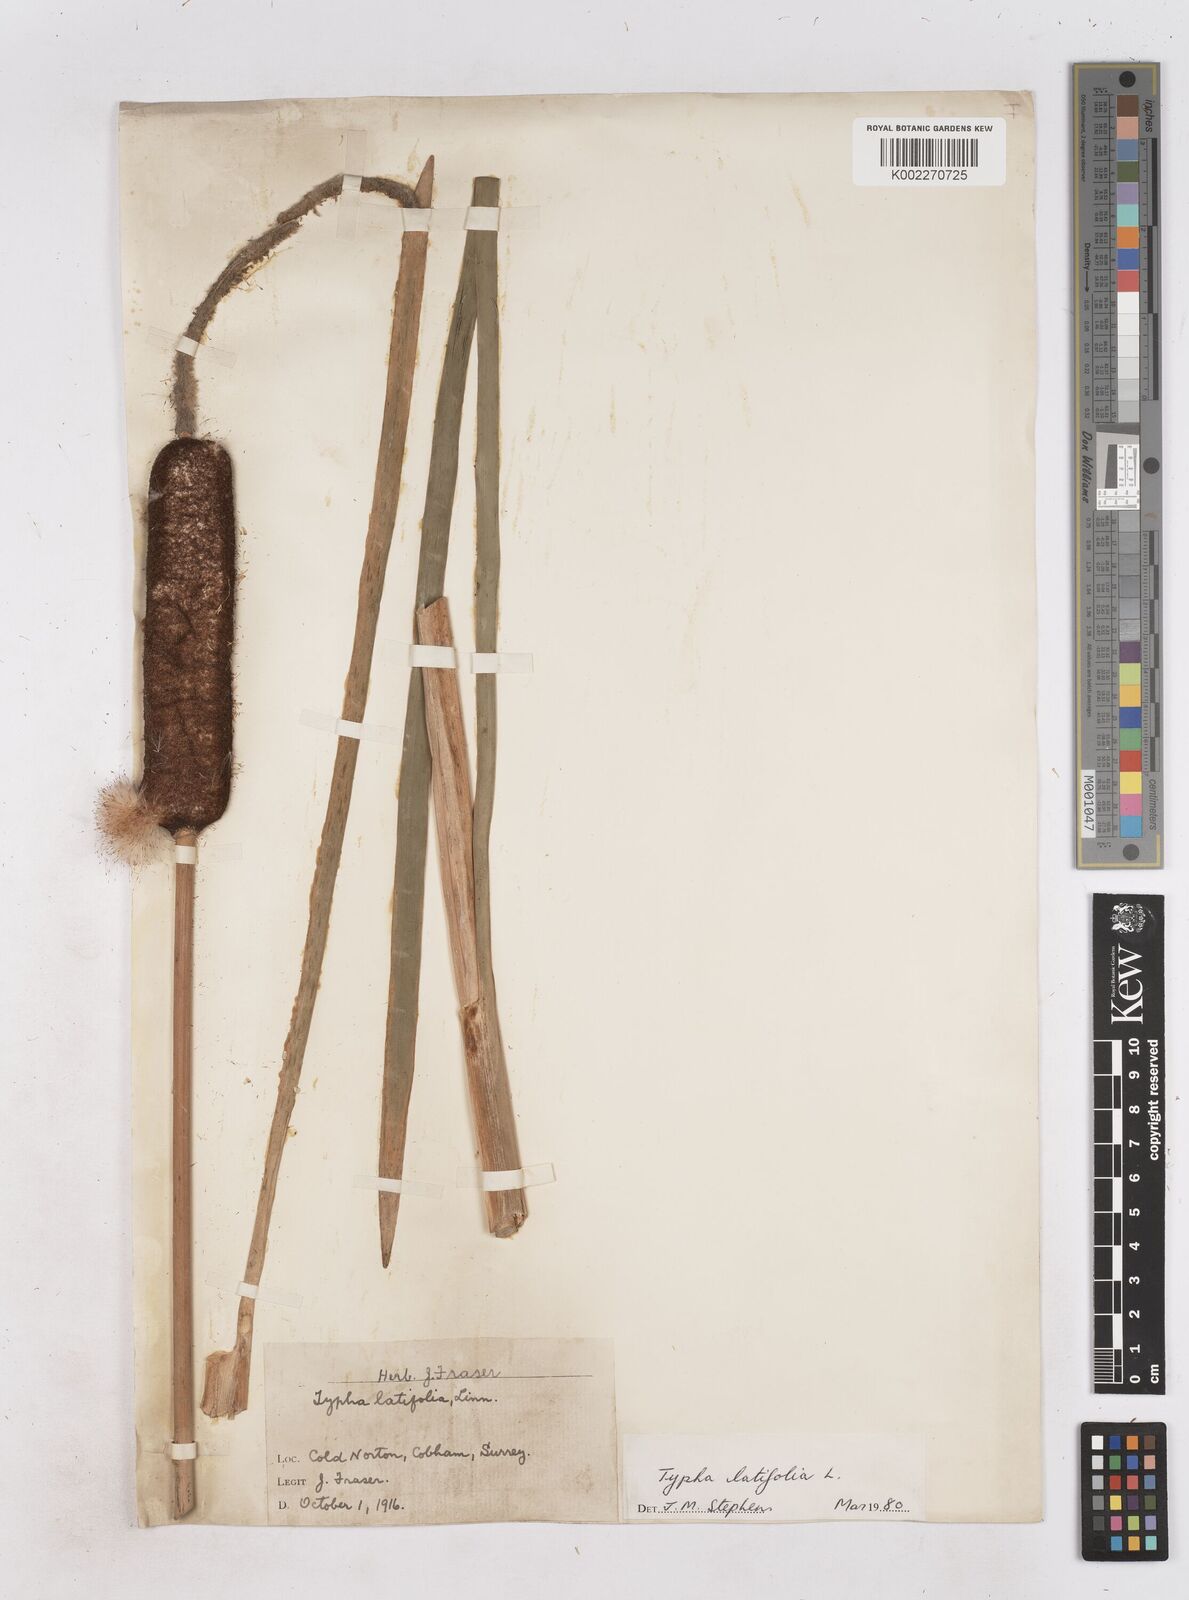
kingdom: Plantae
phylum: Tracheophyta
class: Liliopsida
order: Poales
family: Typhaceae
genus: Typha
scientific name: Typha latifolia
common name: Broadleaf cattail
